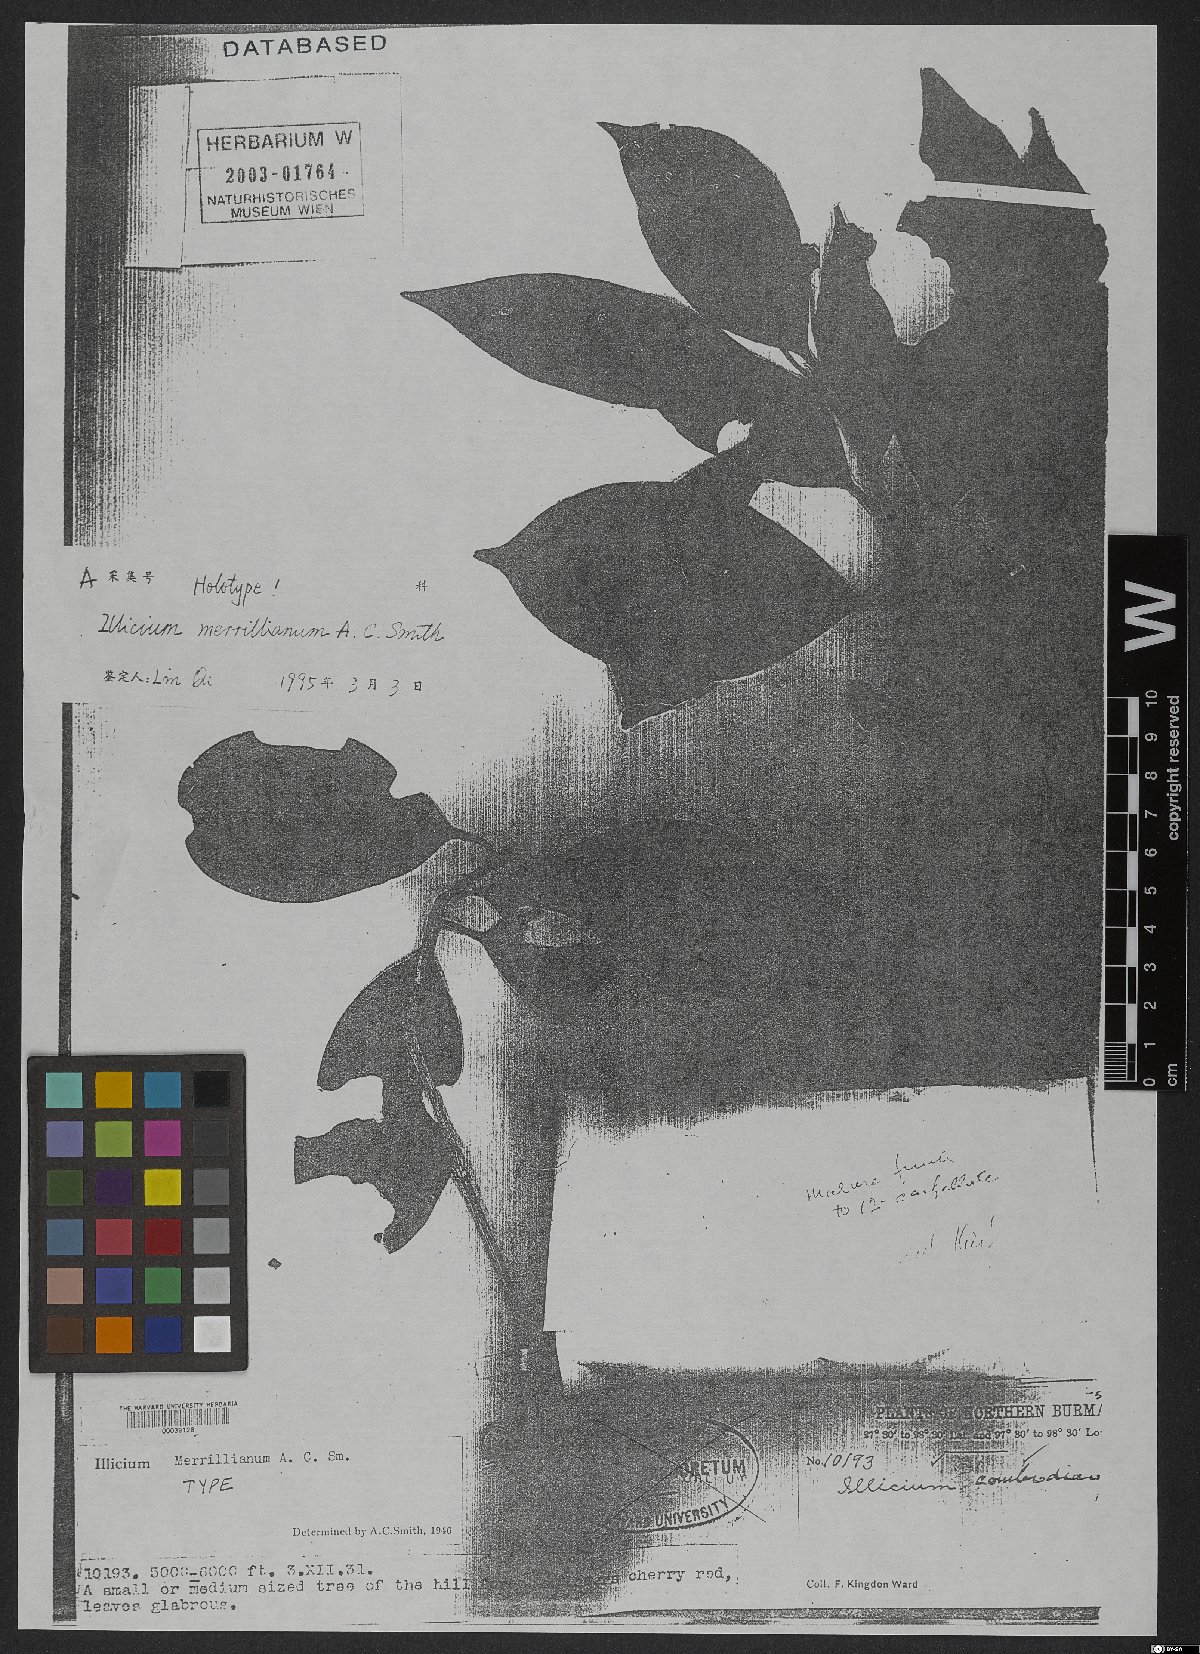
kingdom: Plantae
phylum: Tracheophyta
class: Magnoliopsida
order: Austrobaileyales
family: Schisandraceae
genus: Illicium
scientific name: Illicium merrillianum
